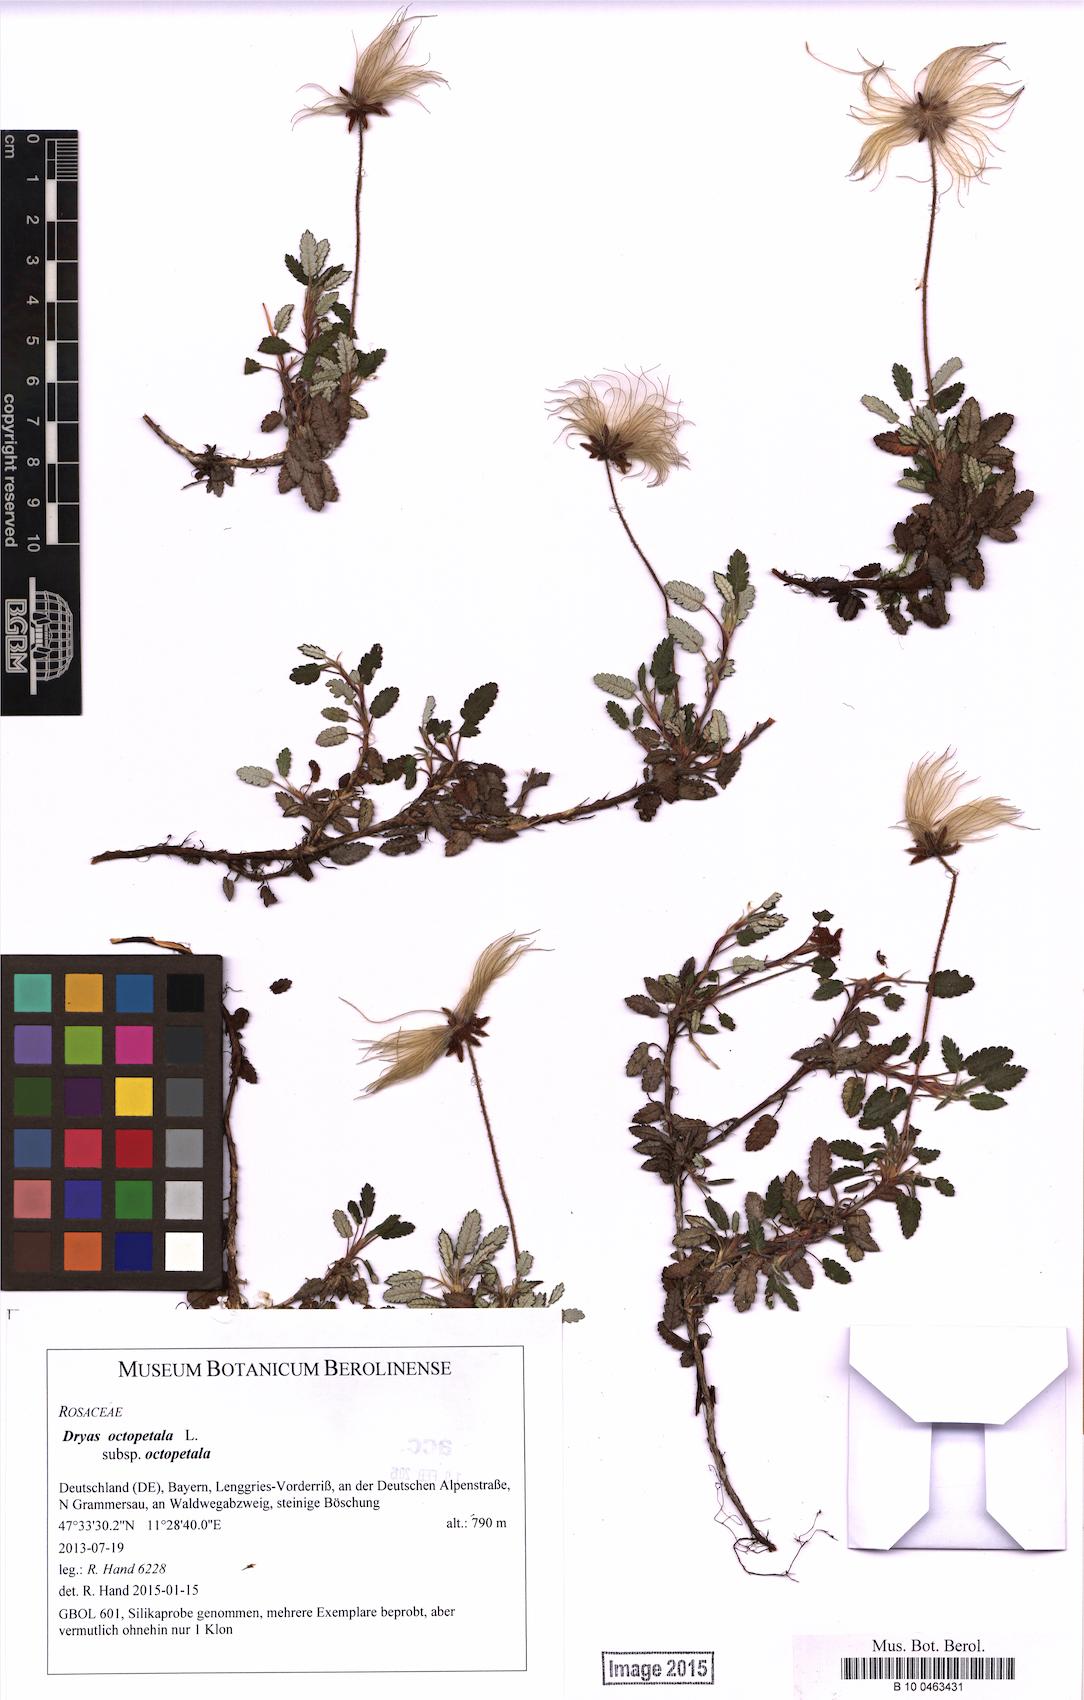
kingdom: Plantae
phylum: Tracheophyta
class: Magnoliopsida
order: Rosales
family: Rosaceae
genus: Dryas
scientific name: Dryas octopetala
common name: Eight-petal mountain-avens
